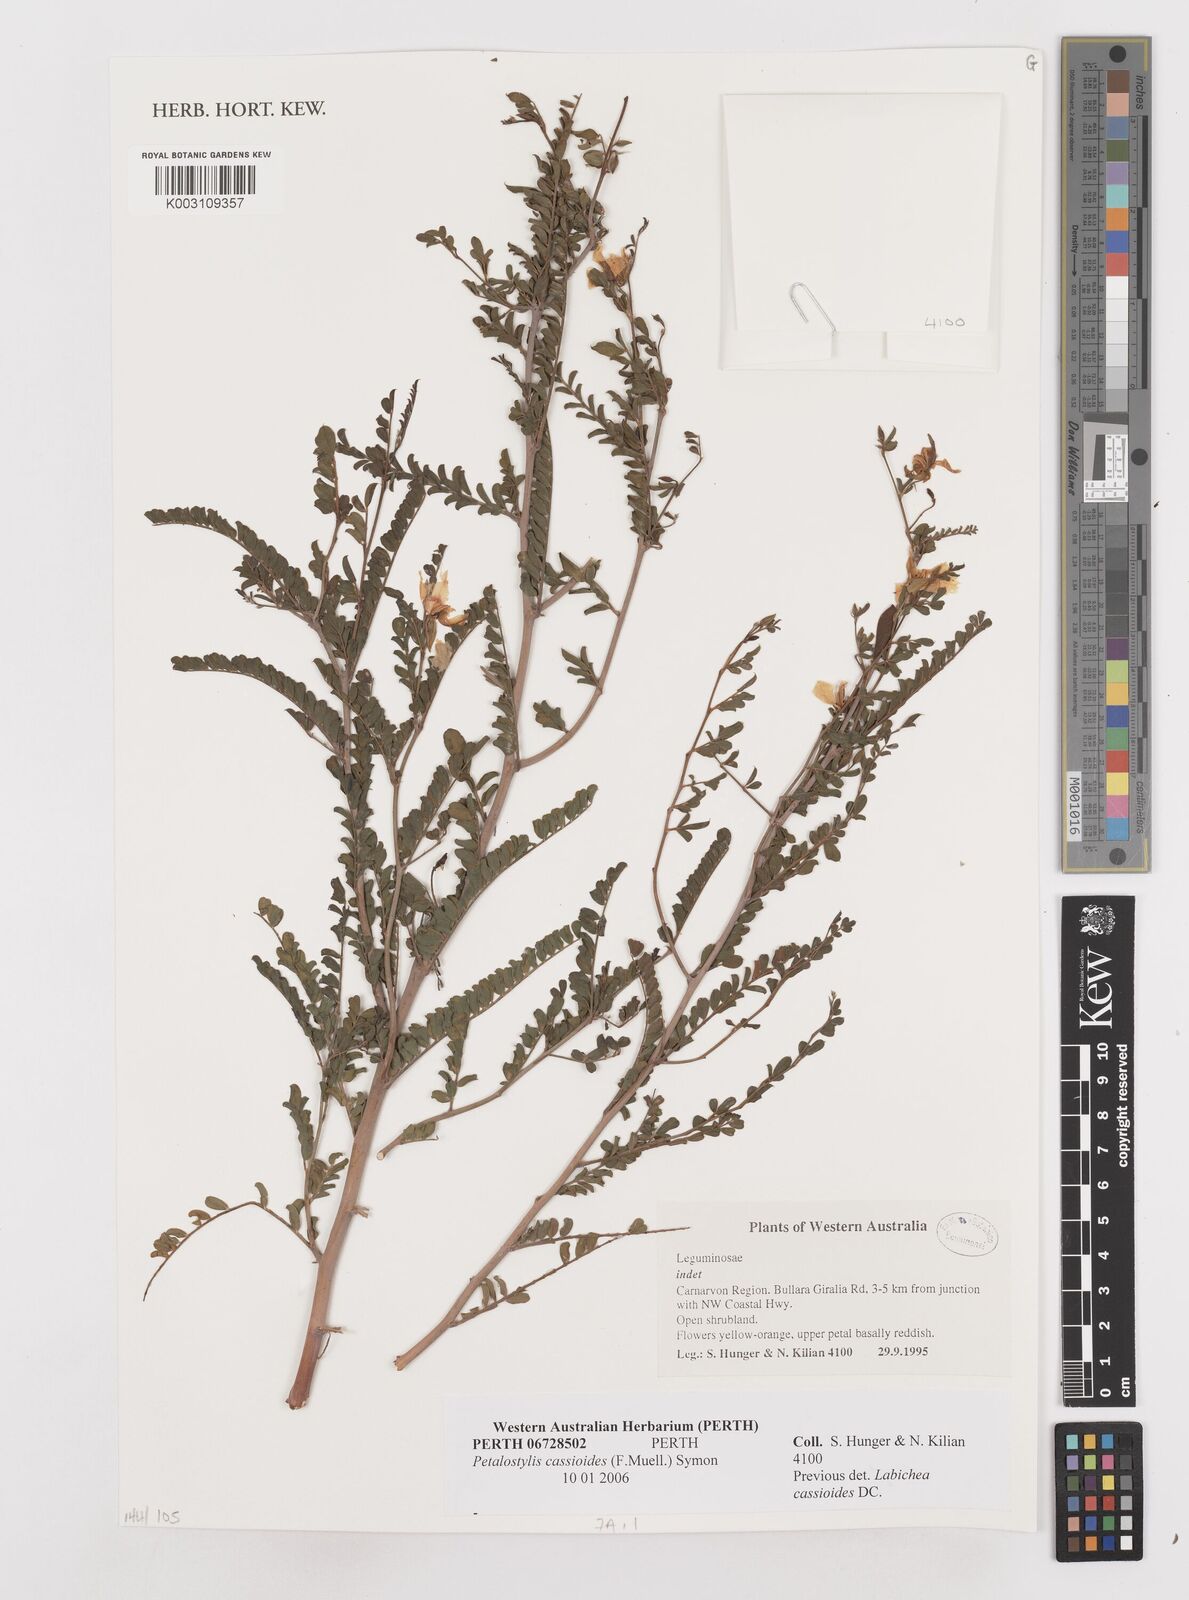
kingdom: Plantae
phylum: Tracheophyta
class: Magnoliopsida
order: Fabales
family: Fabaceae
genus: Petalostylis
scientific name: Petalostylis cassioides
